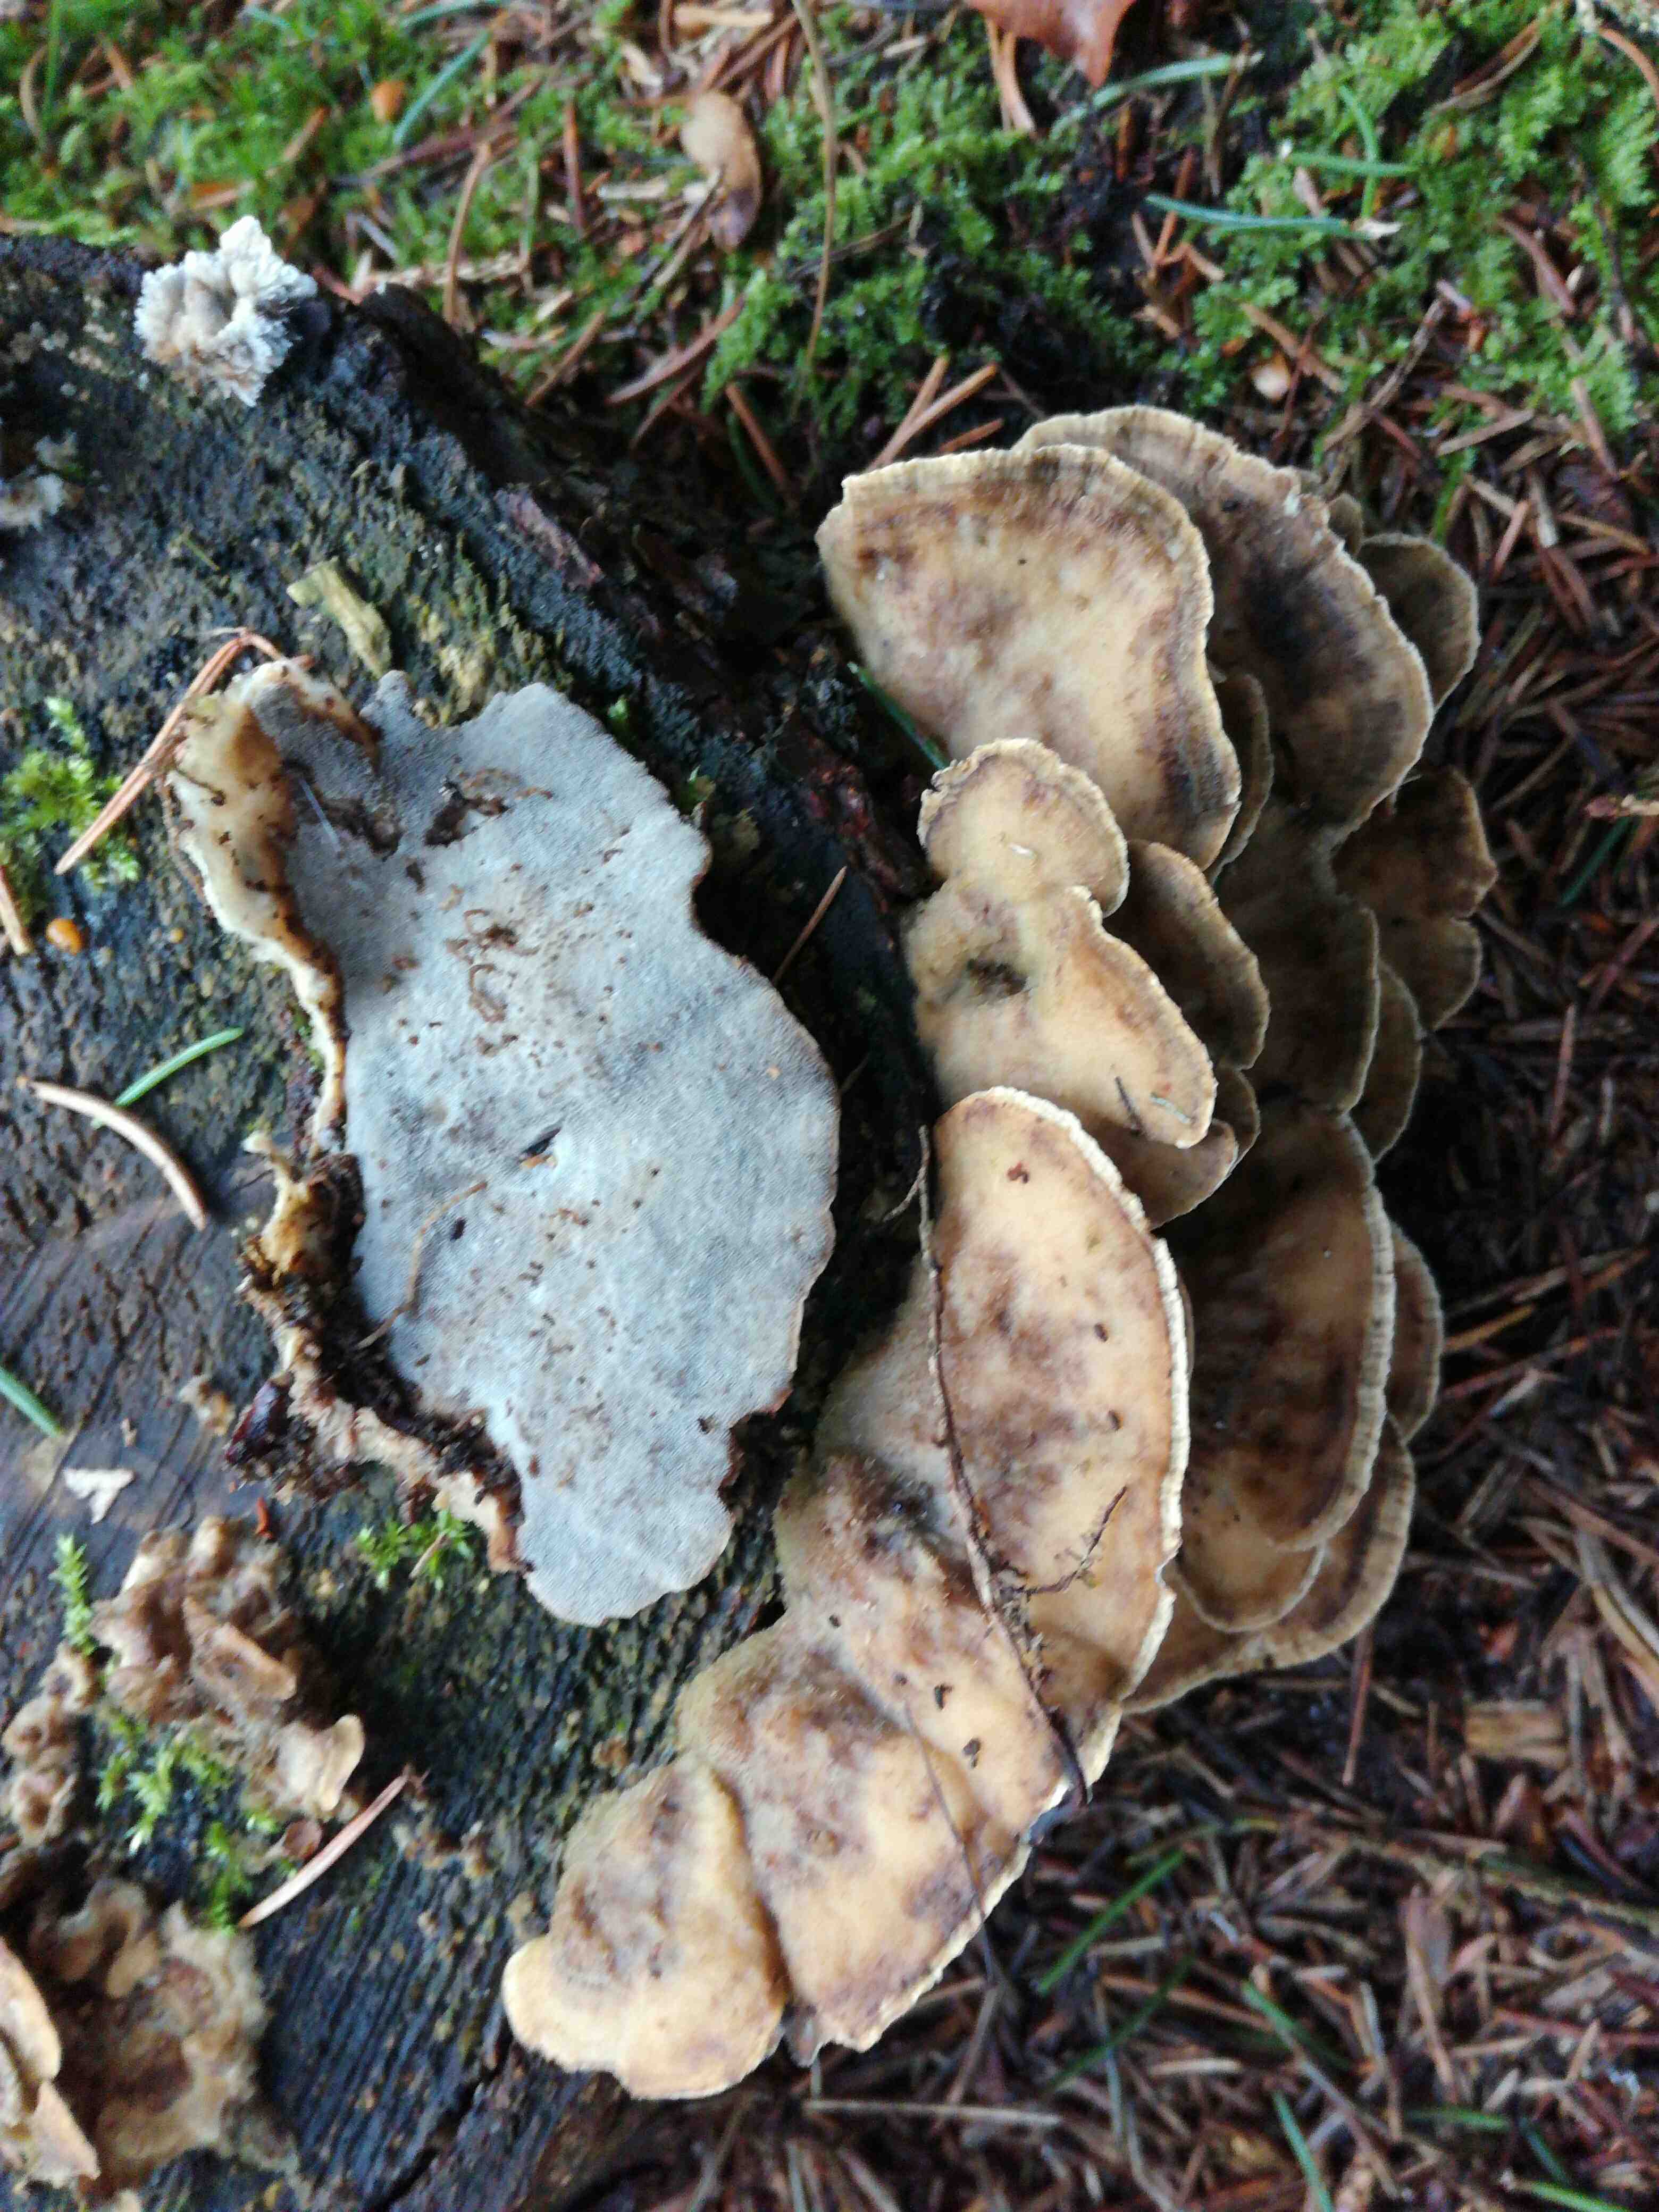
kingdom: Fungi
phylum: Basidiomycota
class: Agaricomycetes
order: Polyporales
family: Phanerochaetaceae
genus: Bjerkandera
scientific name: Bjerkandera adusta
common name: sveden sodporesvamp
